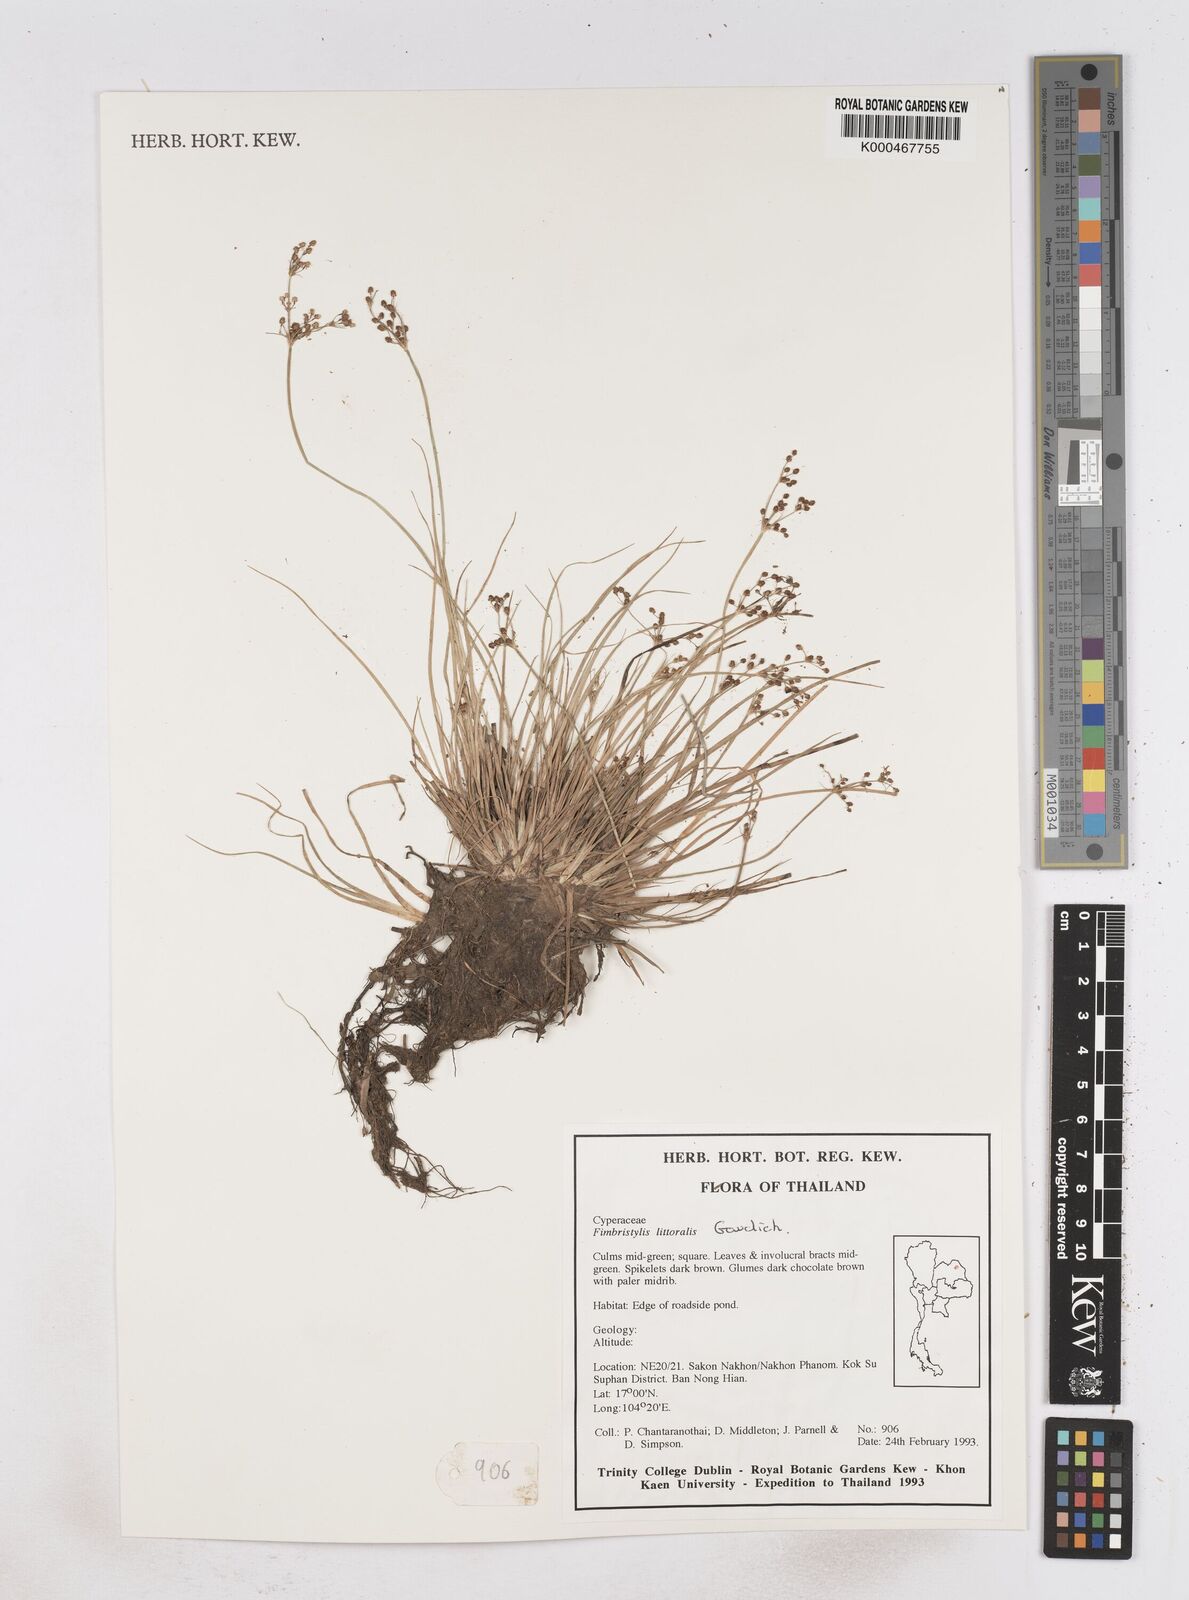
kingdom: Plantae
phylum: Tracheophyta
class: Liliopsida
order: Poales
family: Cyperaceae
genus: Fimbristylis
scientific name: Fimbristylis quinquangularis
